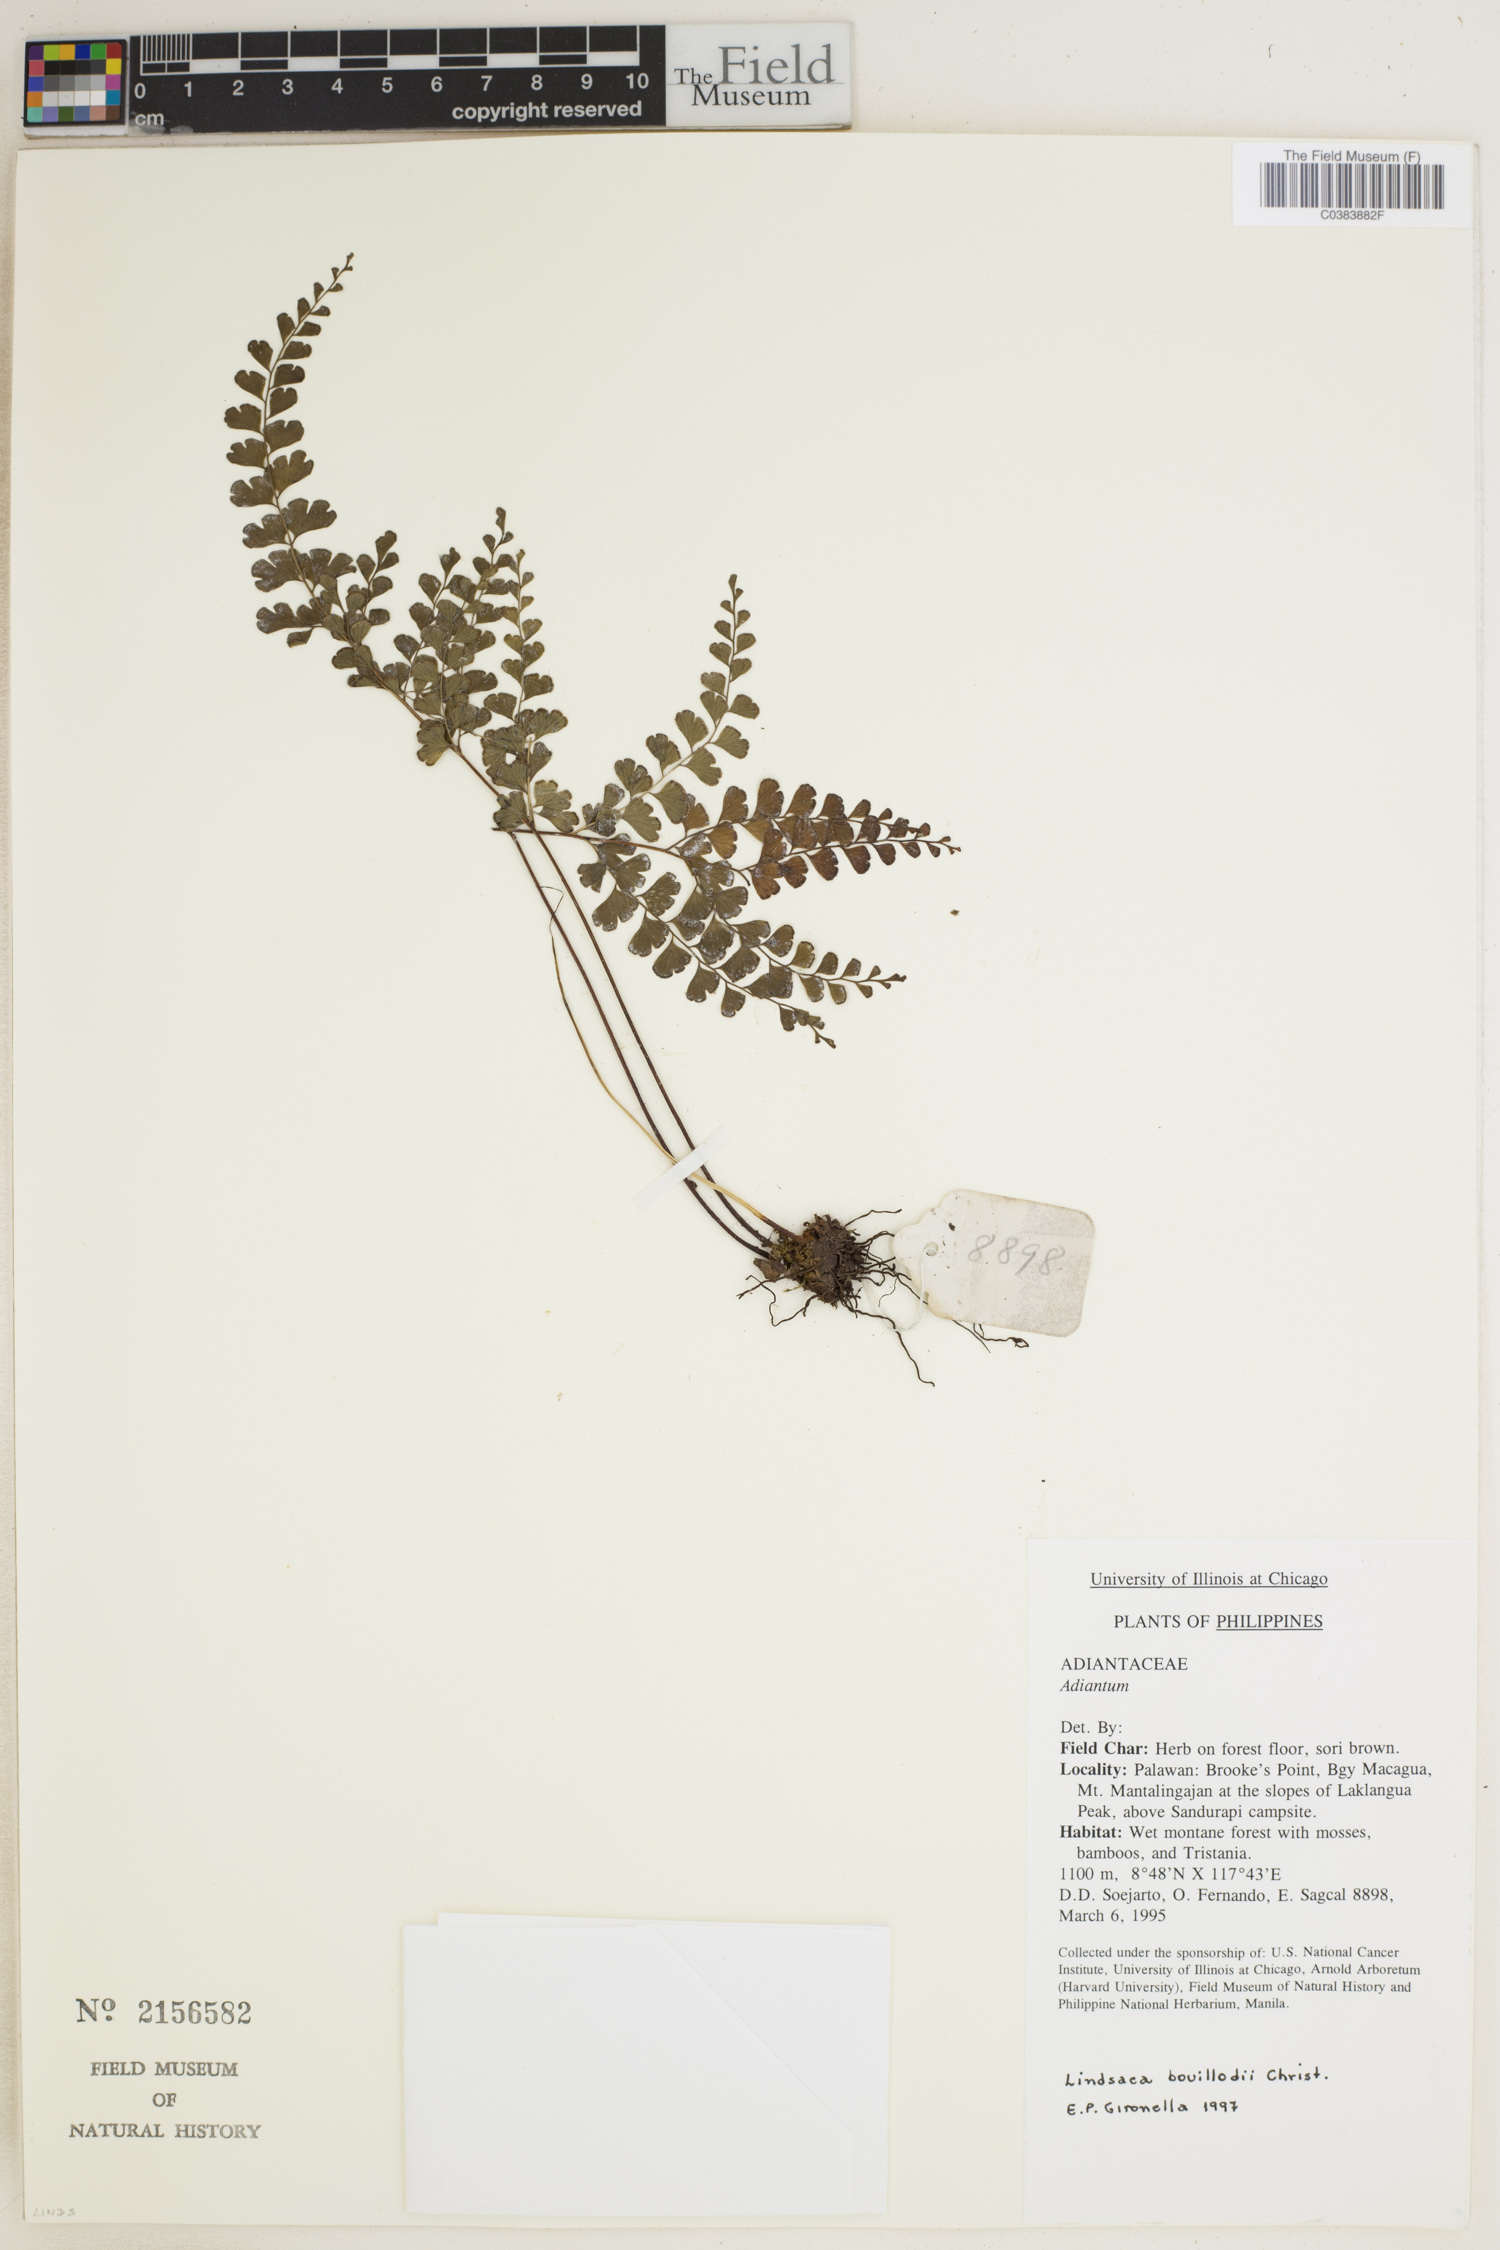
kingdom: Plantae
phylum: Tracheophyta
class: Polypodiopsida
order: Polypodiales
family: Lindsaeaceae
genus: Lindsaea
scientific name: Lindsaea interrupta
